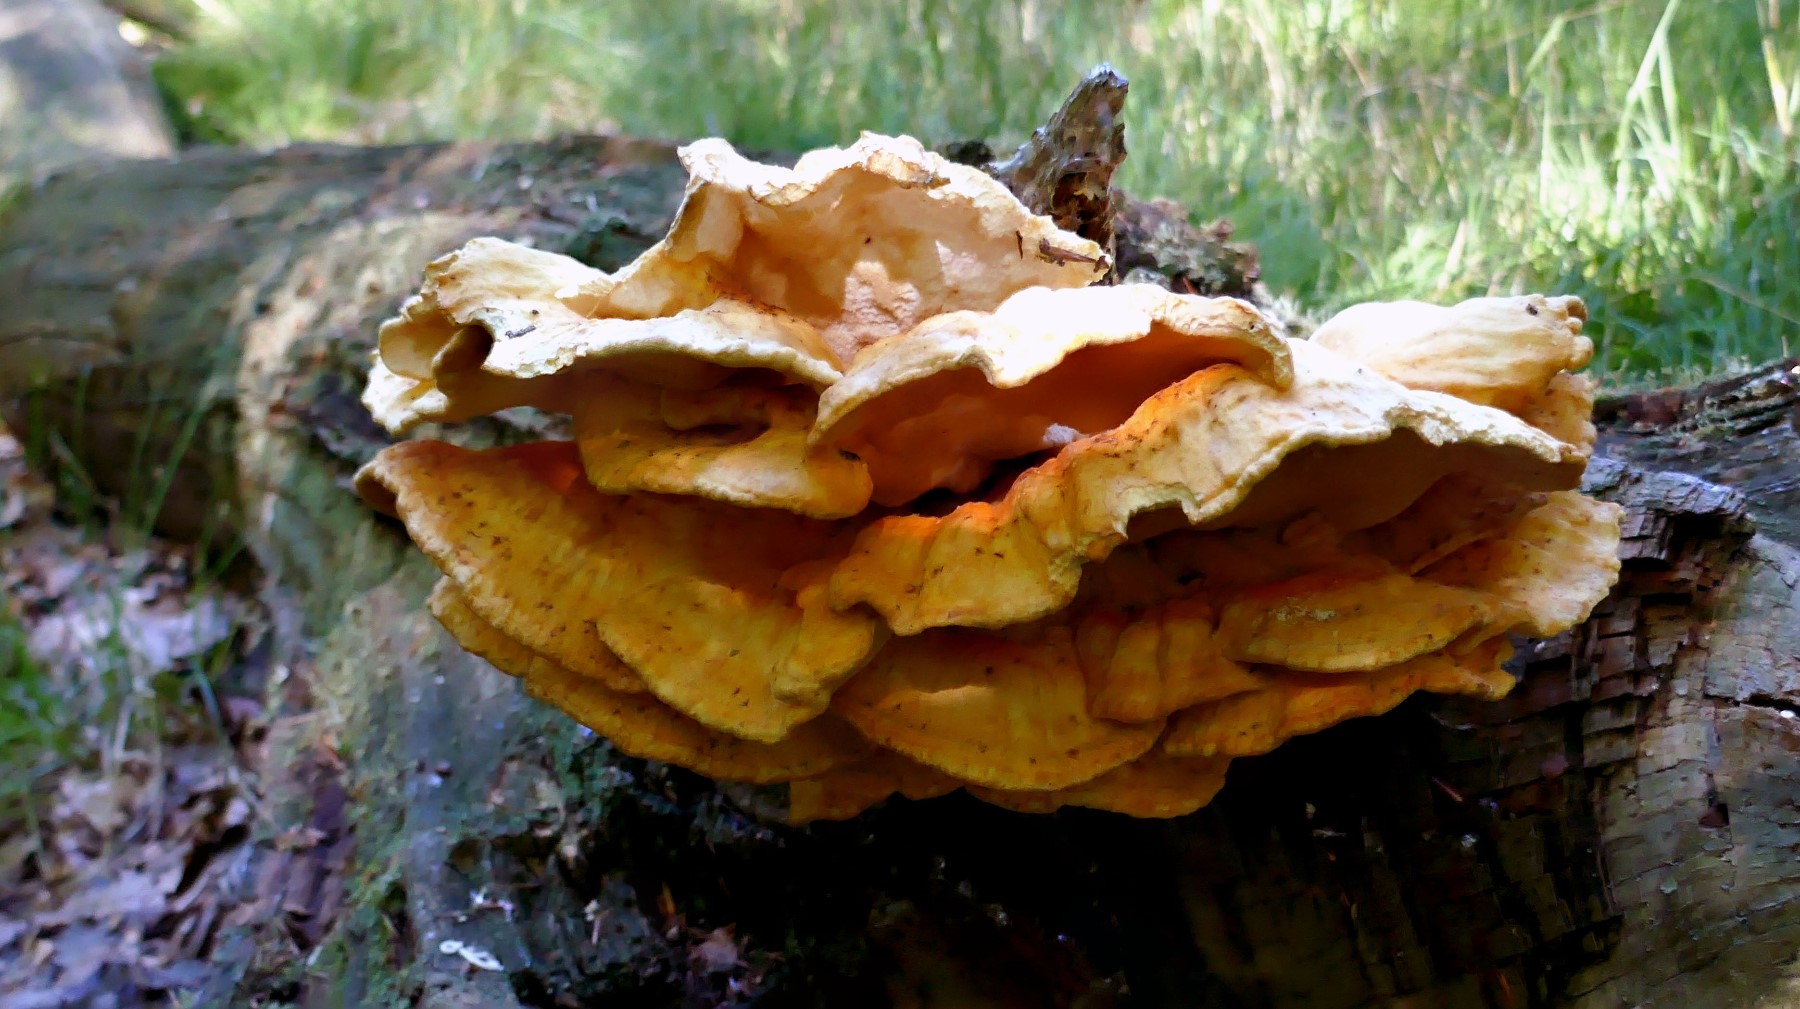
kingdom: Fungi
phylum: Basidiomycota
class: Agaricomycetes
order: Polyporales
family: Laetiporaceae
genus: Laetiporus
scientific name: Laetiporus sulphureus
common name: svovlporesvamp
